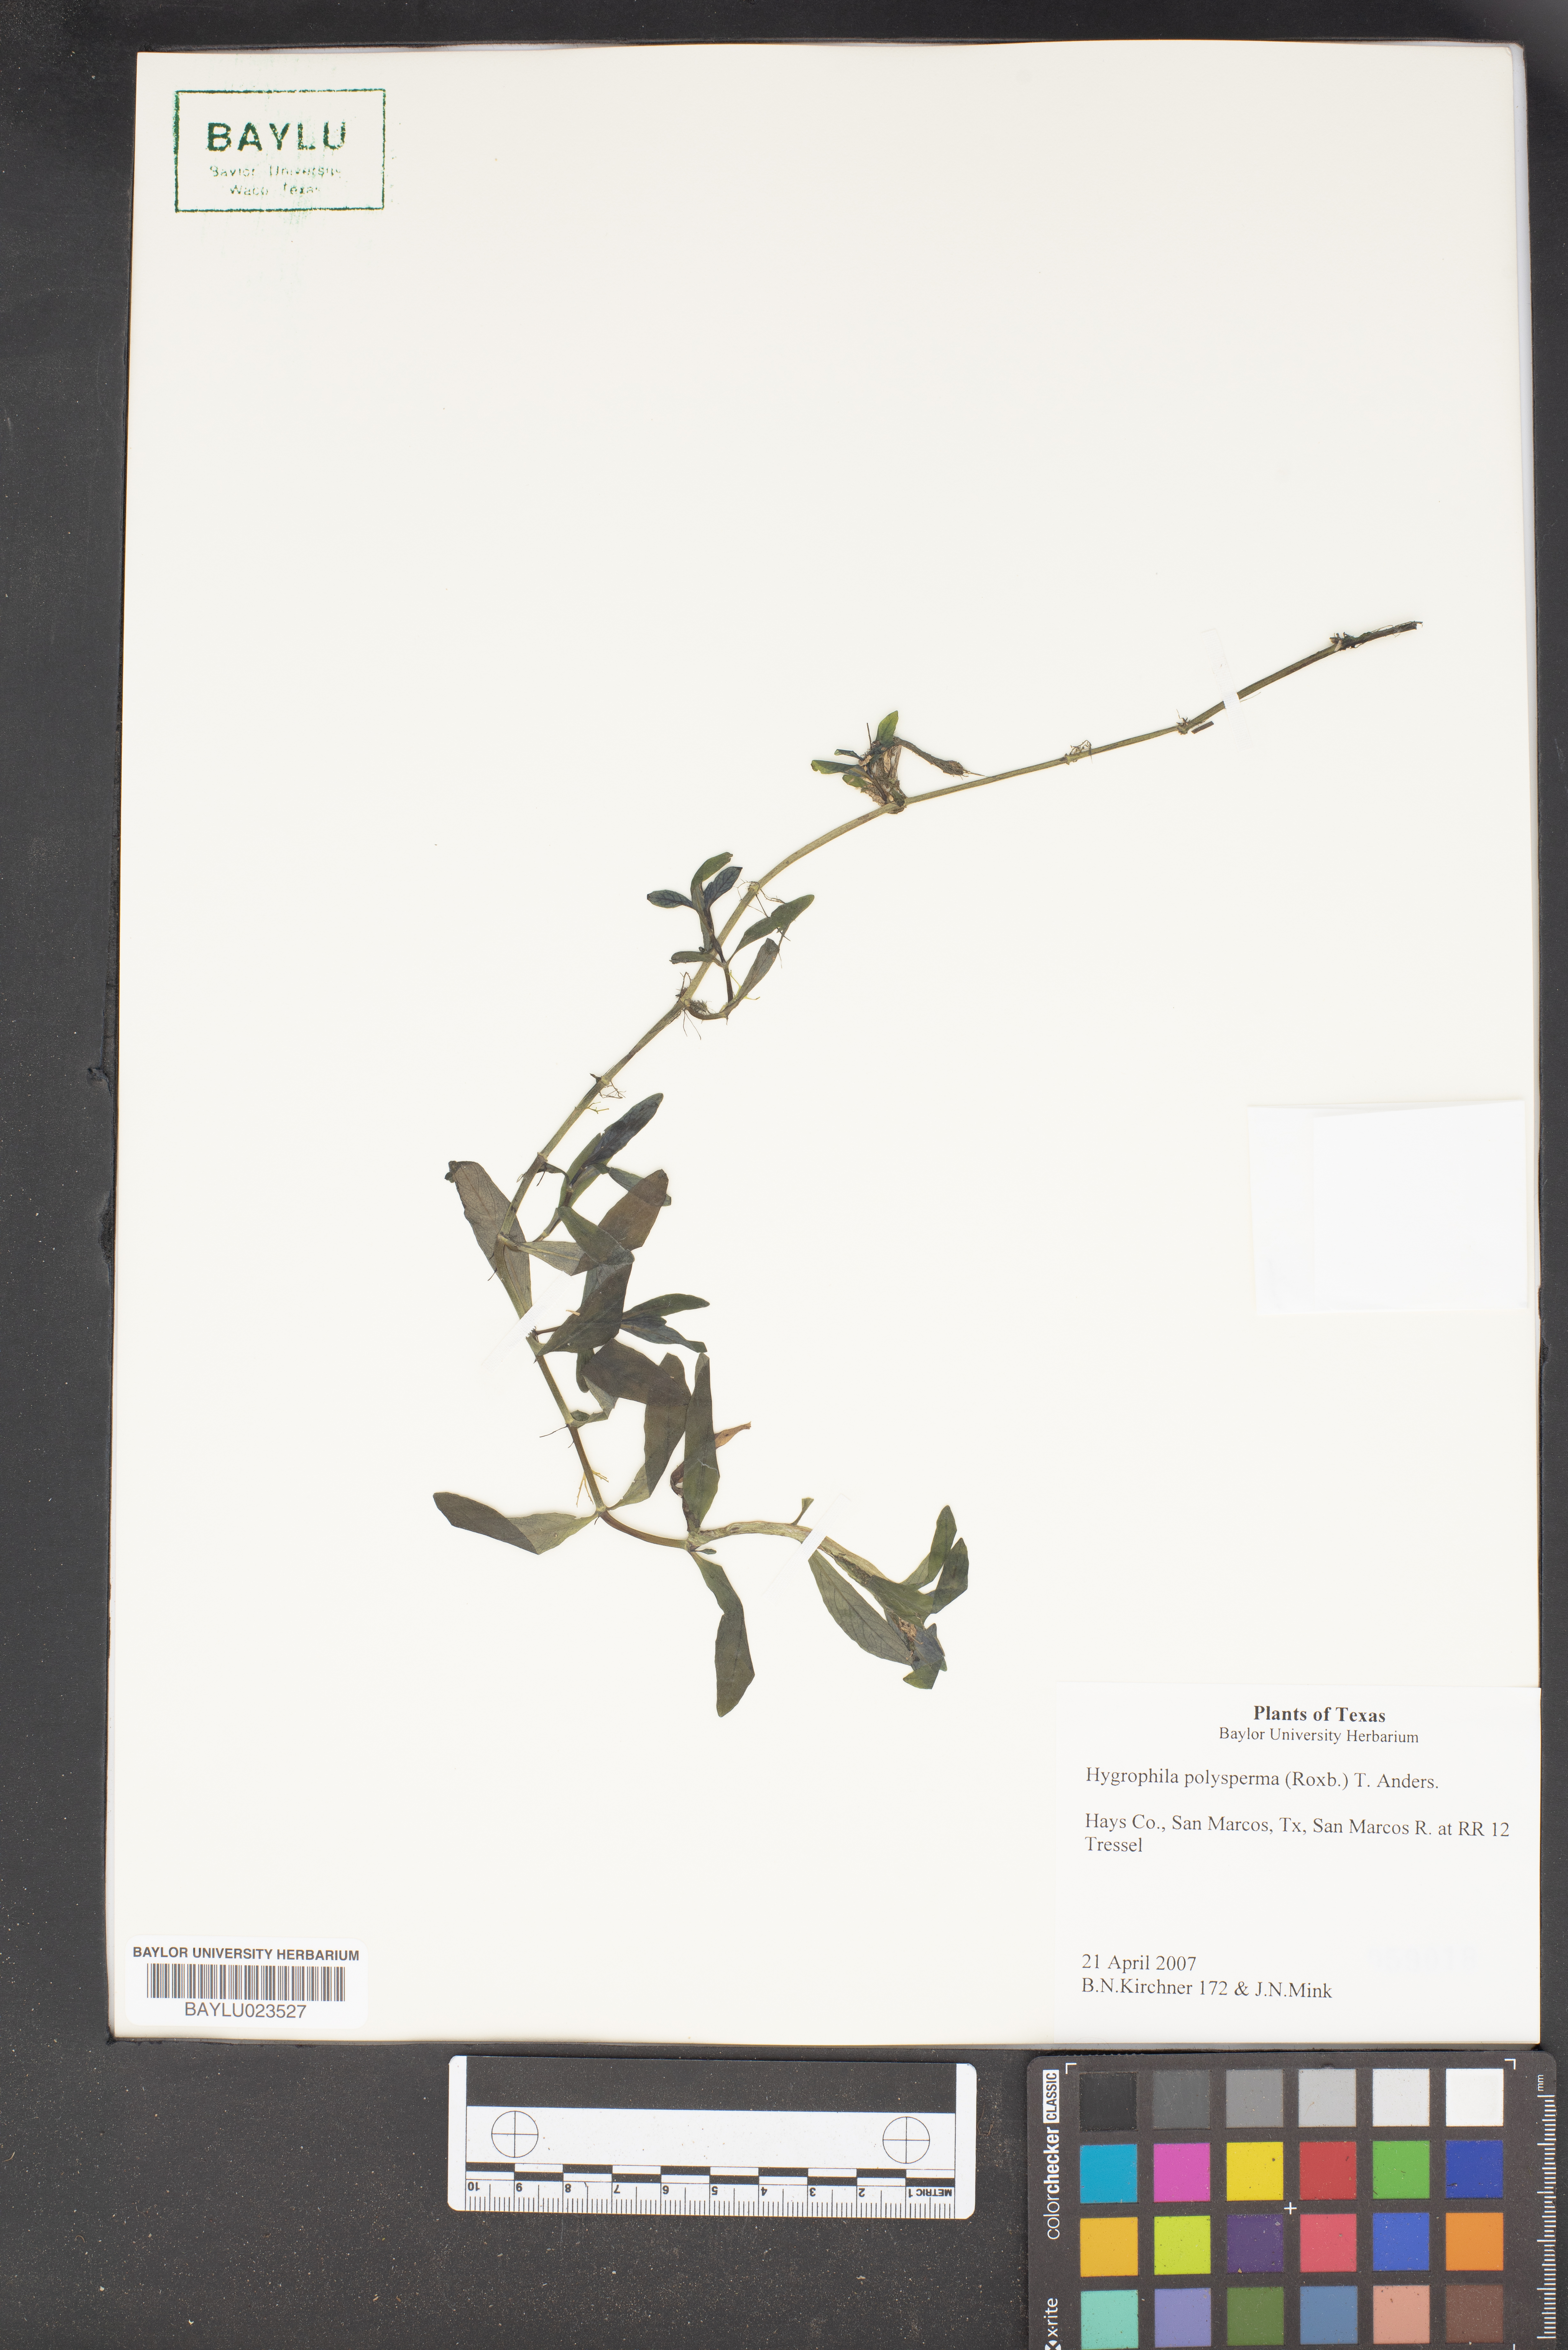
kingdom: Plantae
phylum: Tracheophyta
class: Magnoliopsida
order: Lamiales
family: Acanthaceae
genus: Hygrophila
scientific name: Hygrophila polysperma
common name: Indian swampweed
